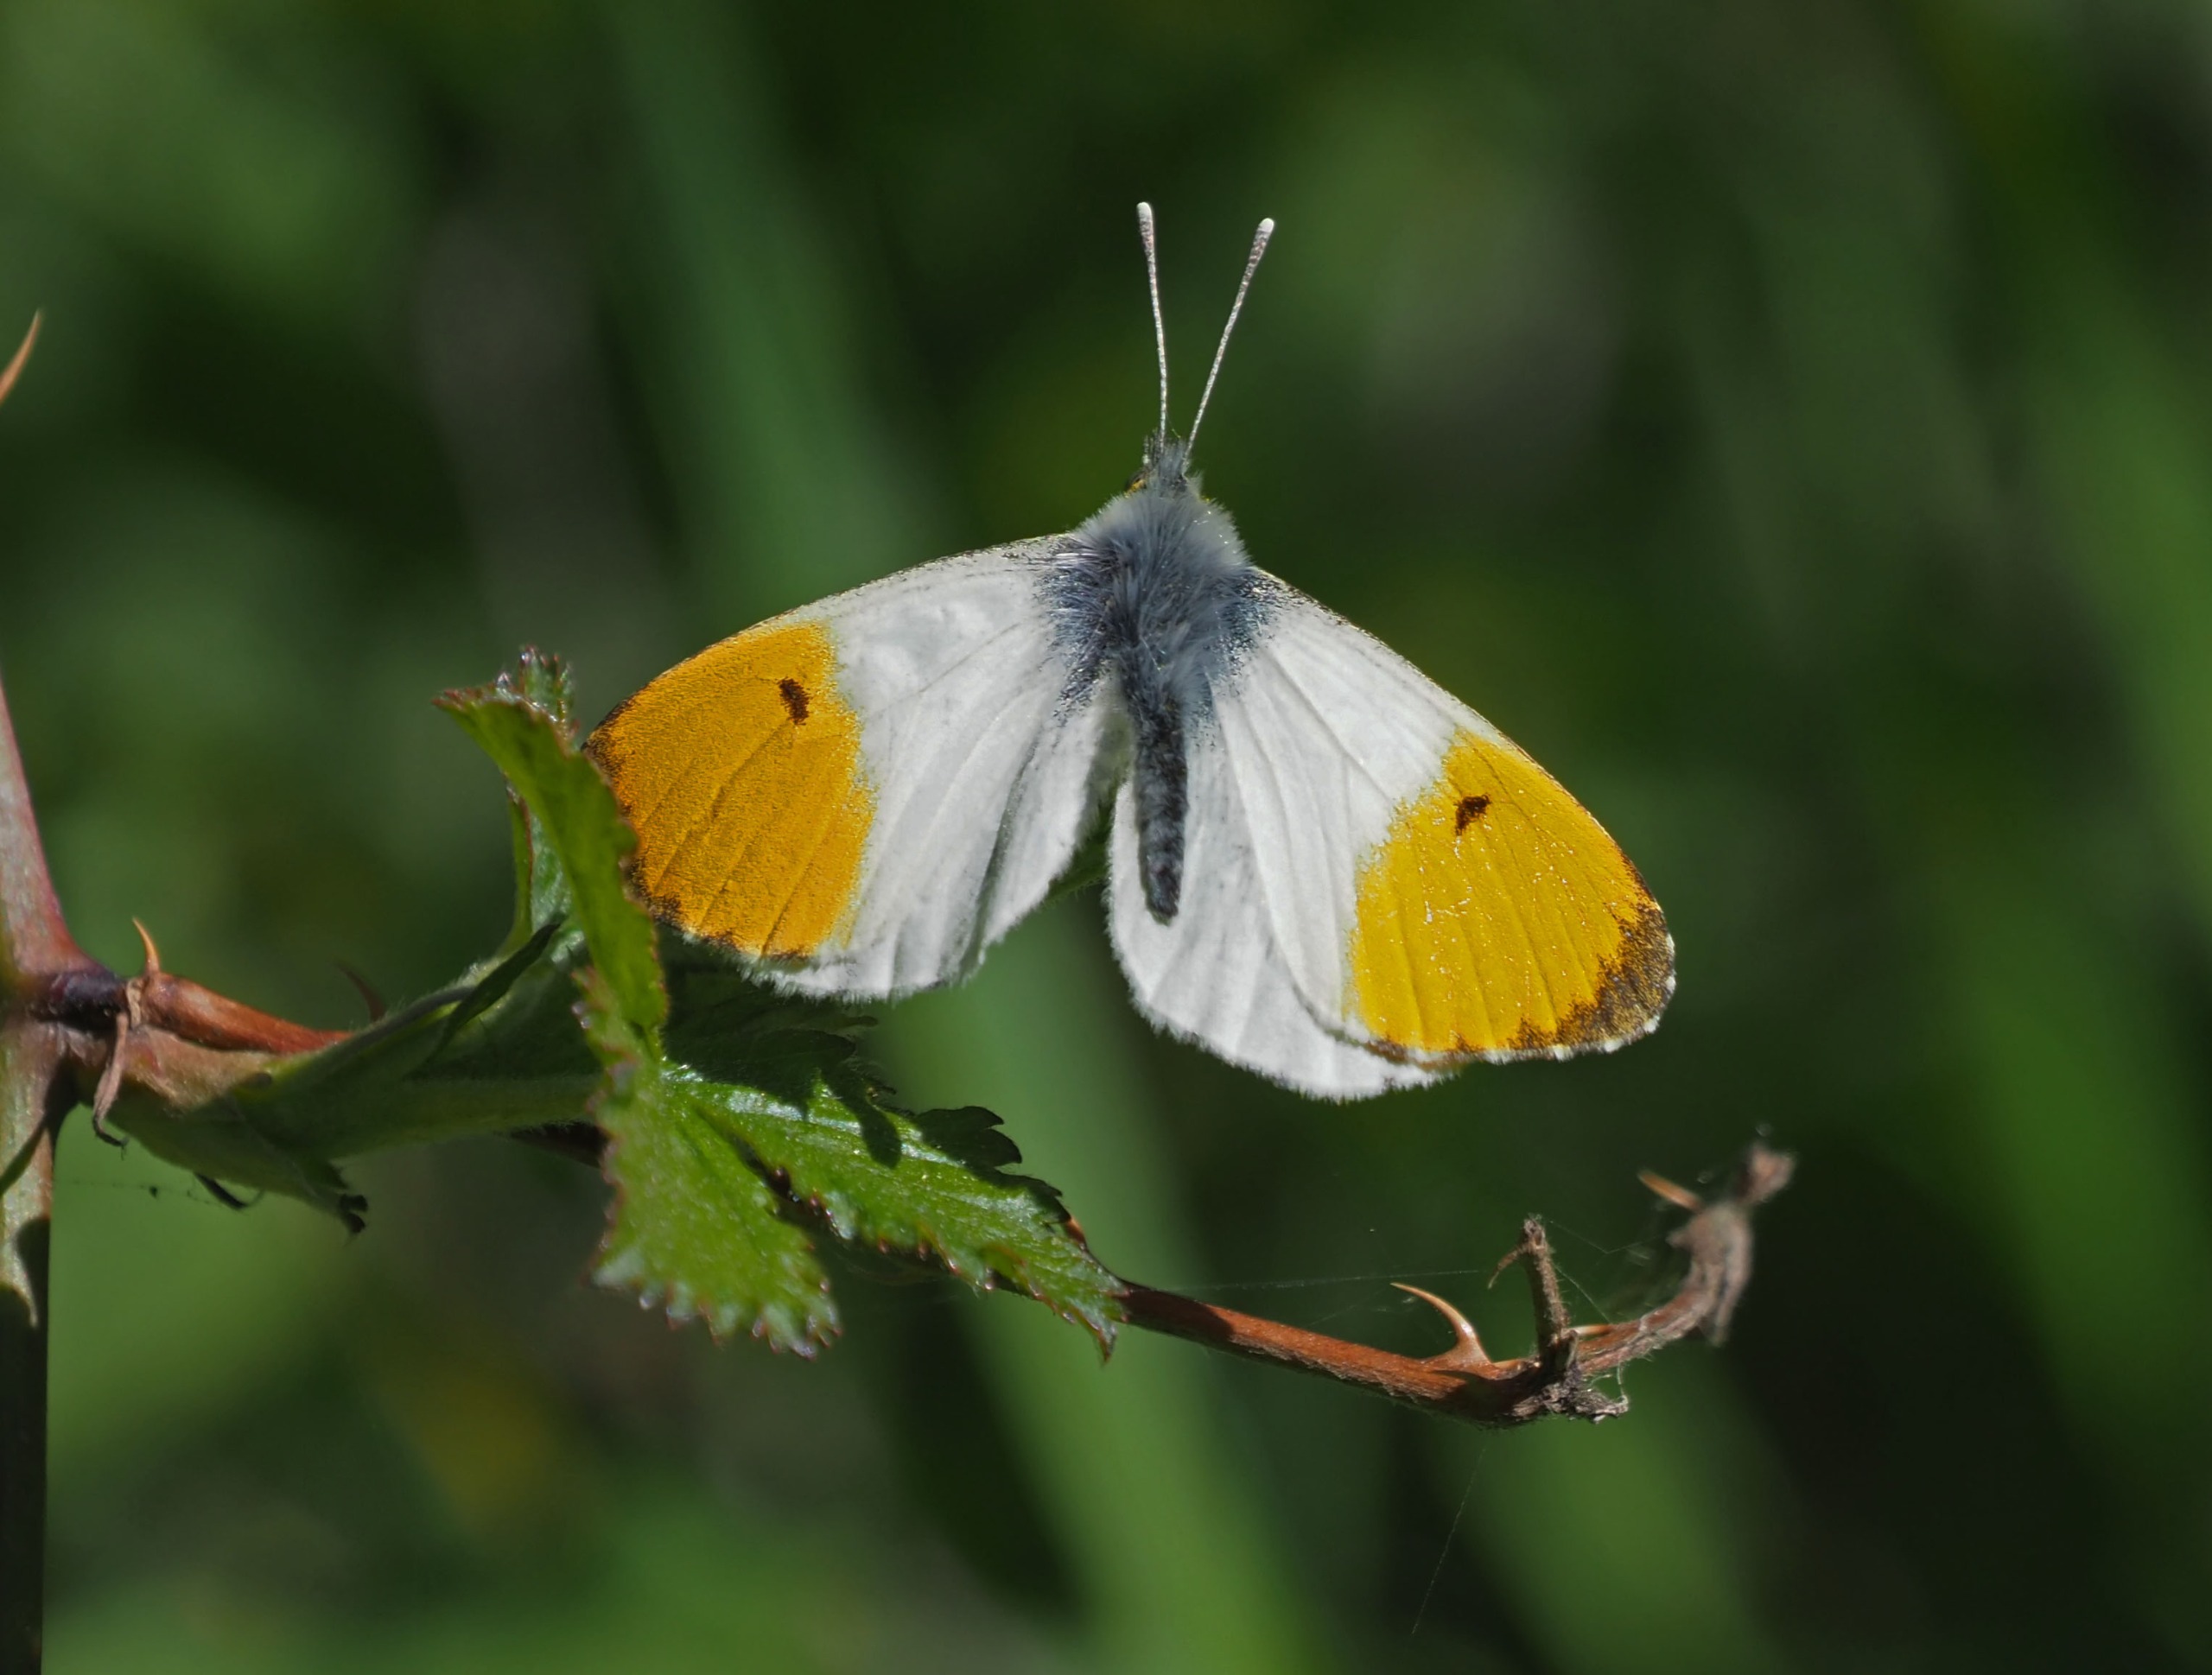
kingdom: Animalia
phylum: Arthropoda
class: Insecta
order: Lepidoptera
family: Pieridae
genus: Anthocharis
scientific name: Anthocharis cardamines
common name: Aurora
